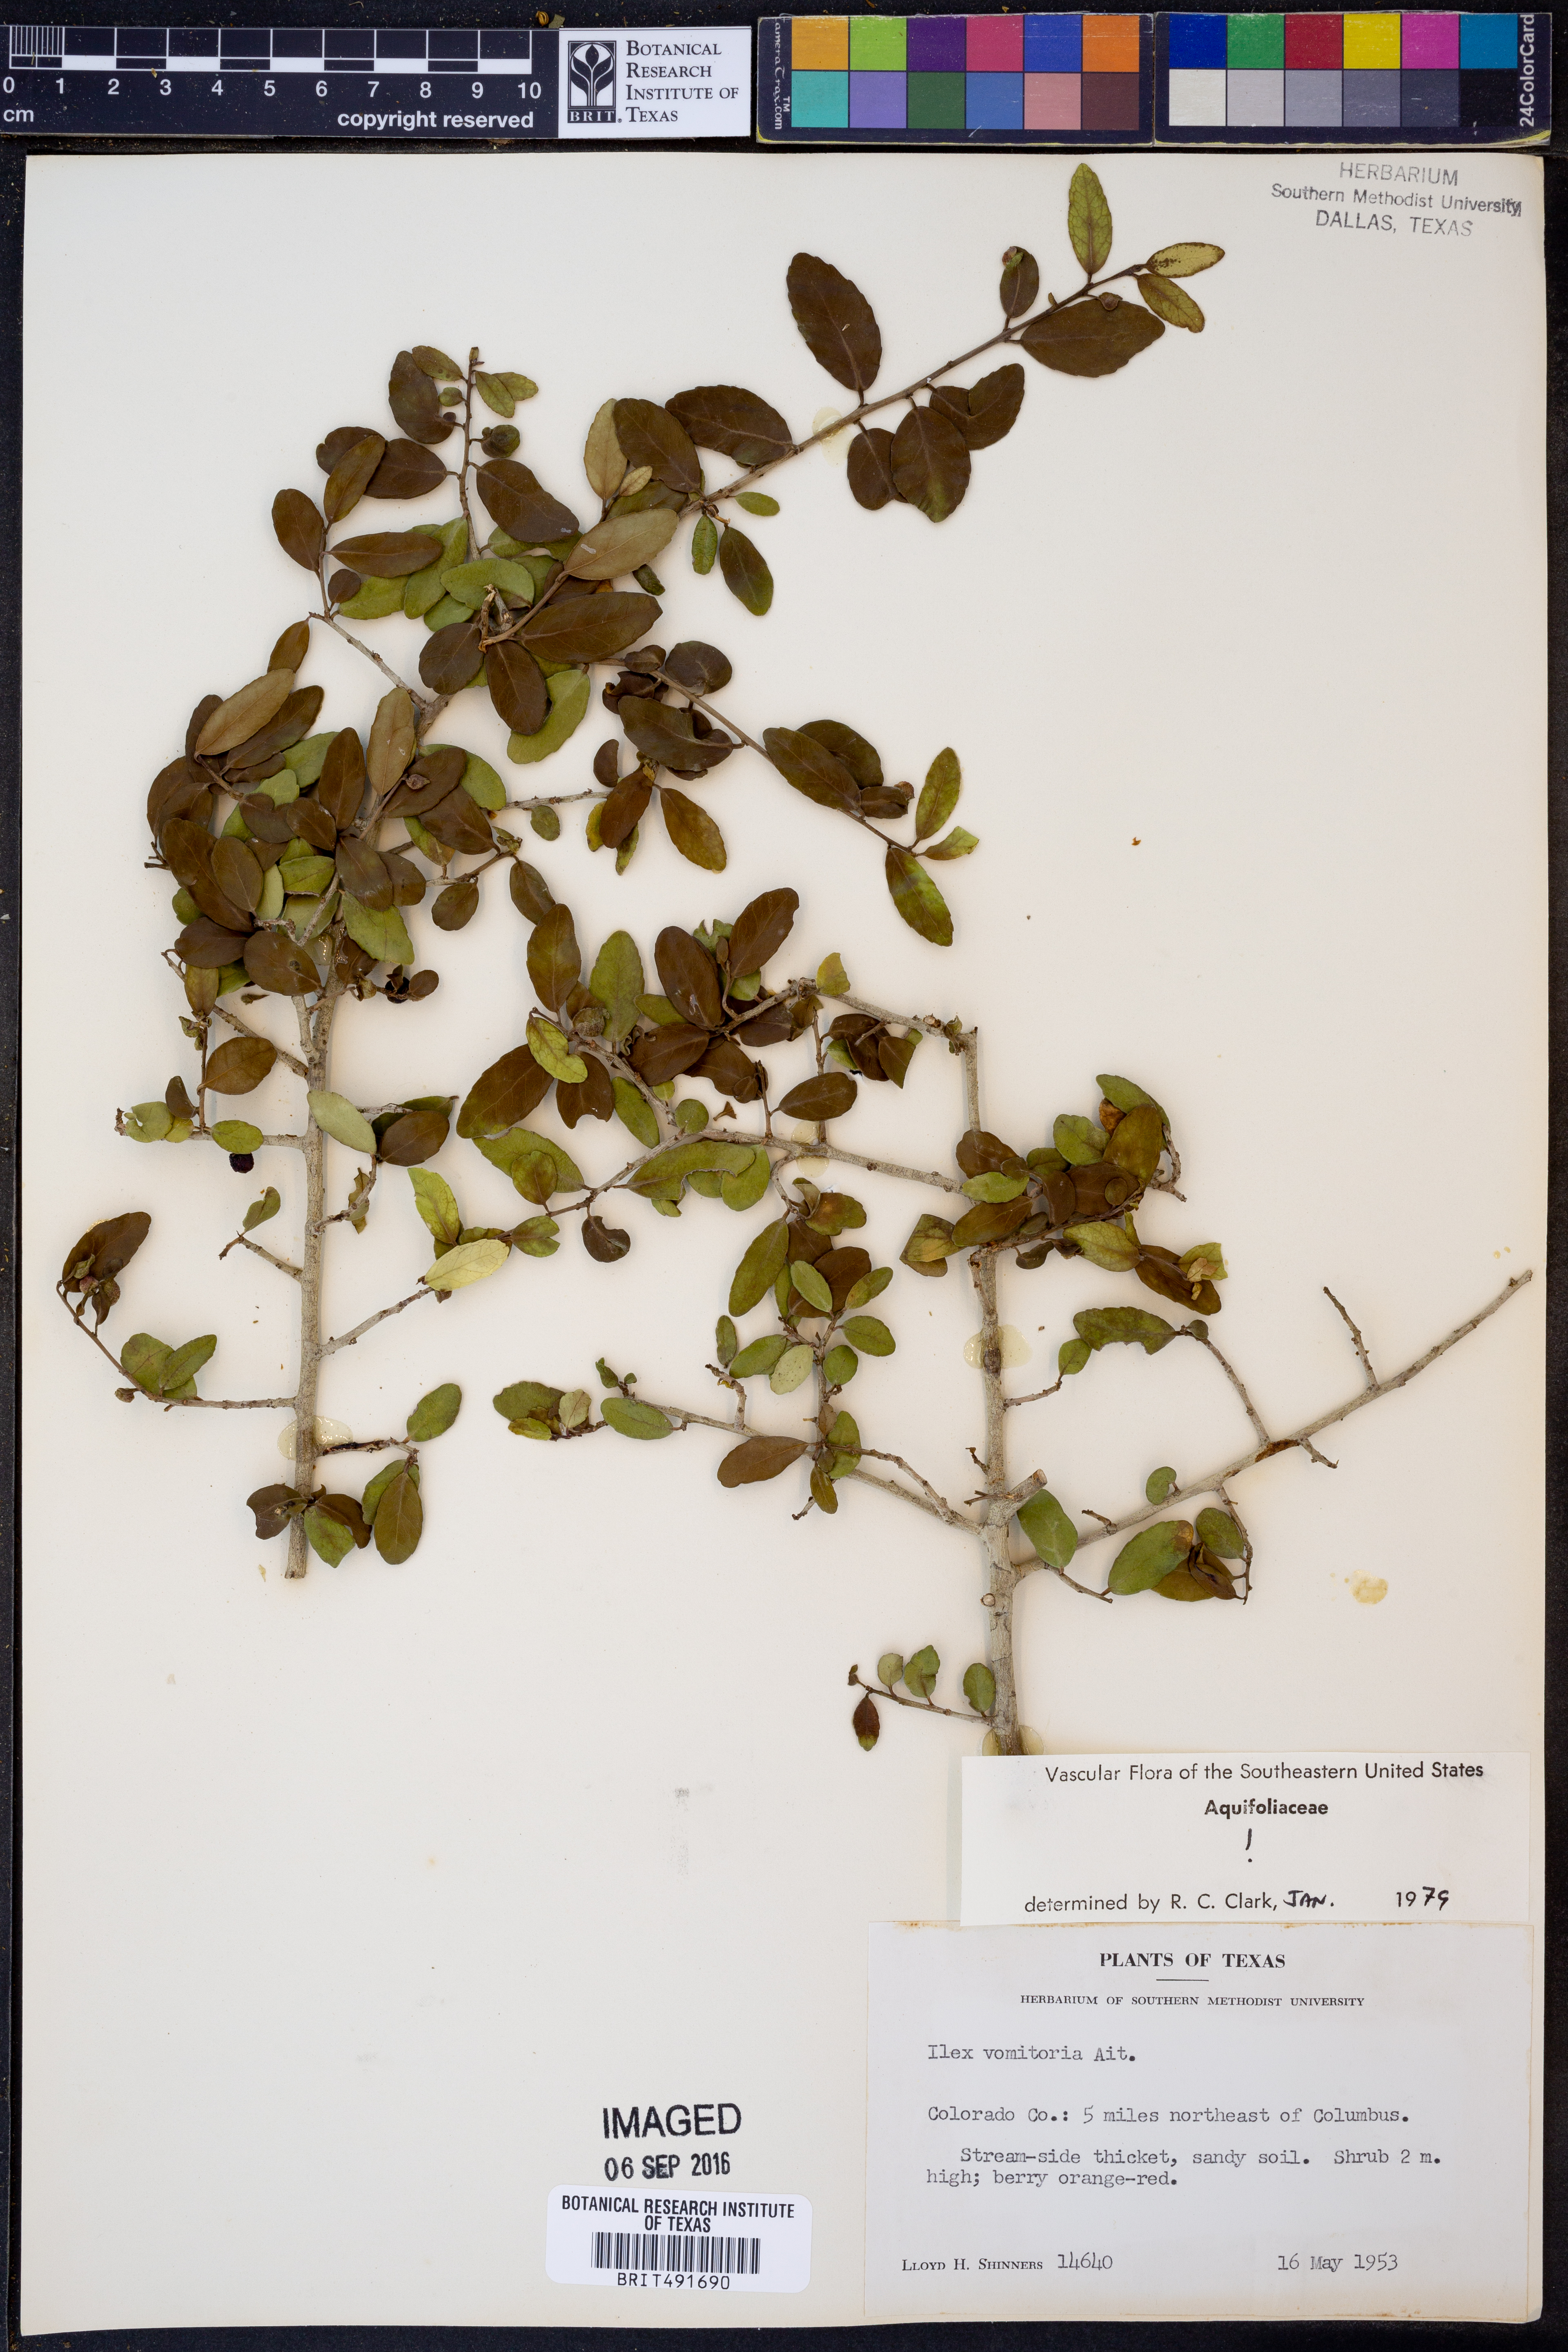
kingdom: Plantae
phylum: Tracheophyta
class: Magnoliopsida
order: Aquifoliales
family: Aquifoliaceae
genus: Ilex
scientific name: Ilex vomitoria
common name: Yaupon holly
